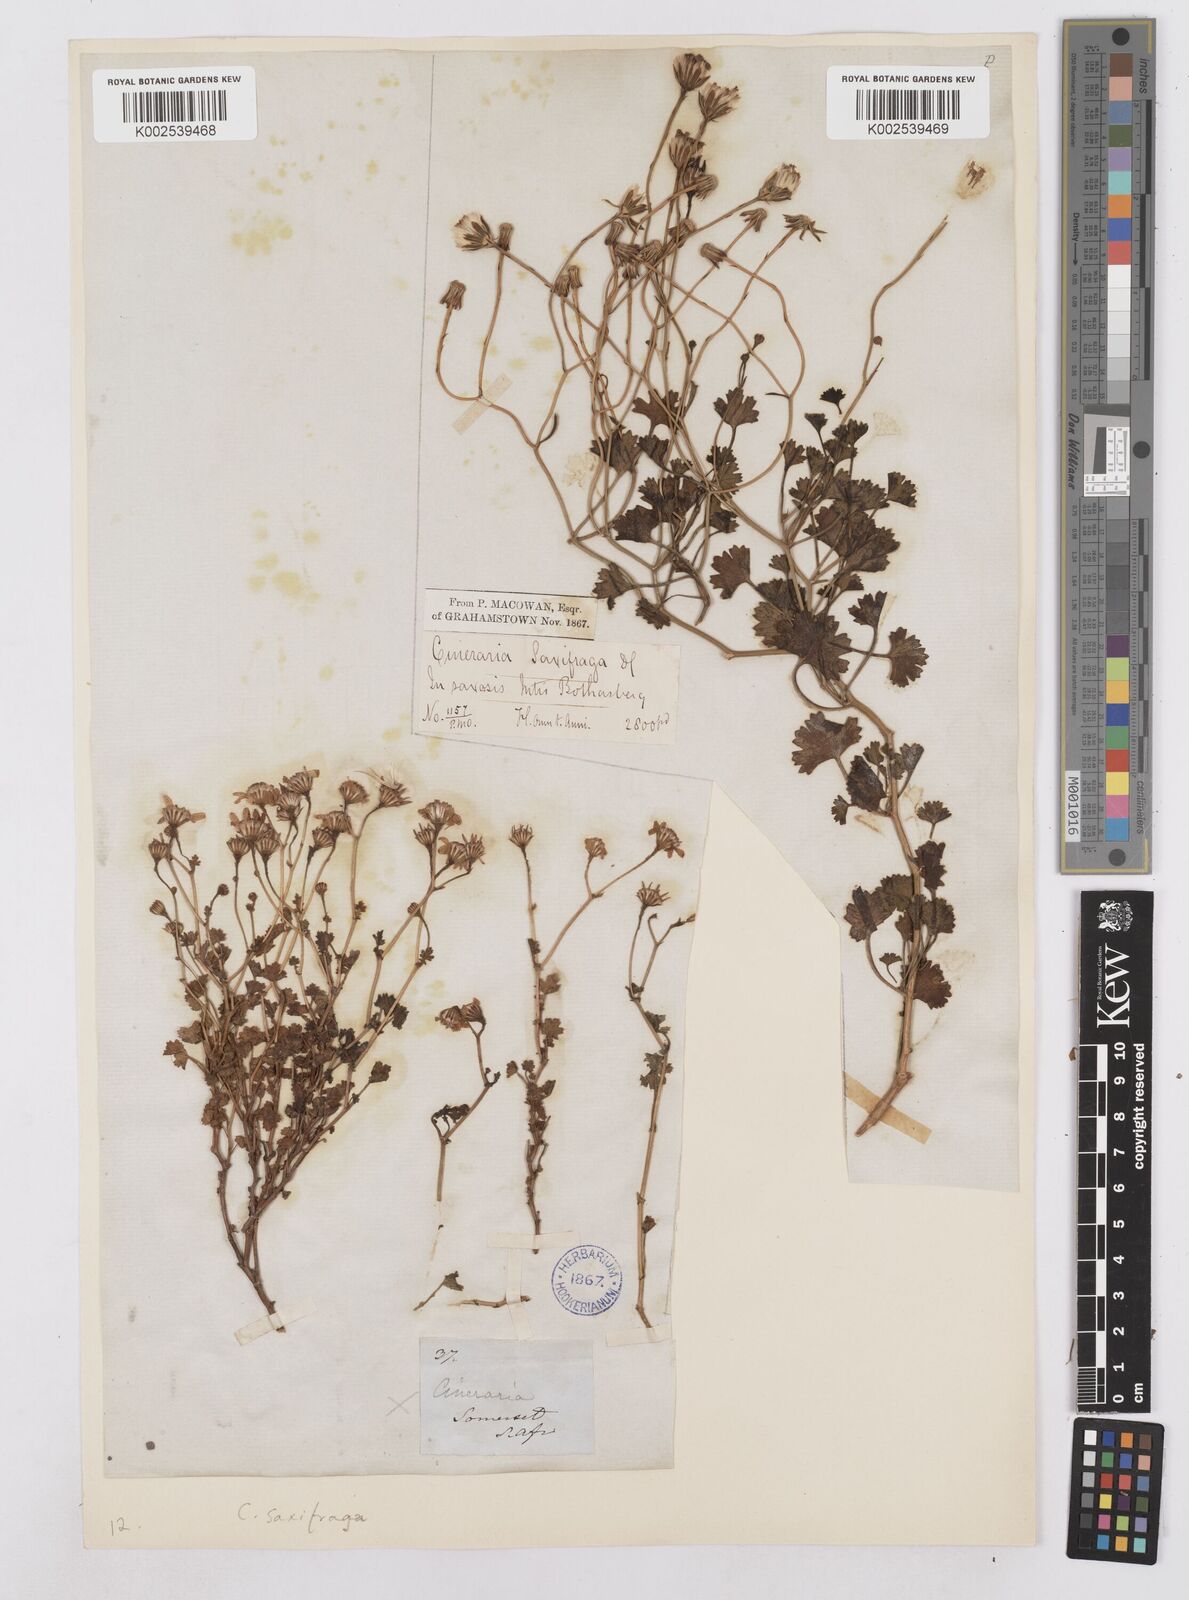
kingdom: Plantae
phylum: Tracheophyta
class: Magnoliopsida
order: Asterales
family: Asteraceae
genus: Cineraria
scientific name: Cineraria saxifraga
